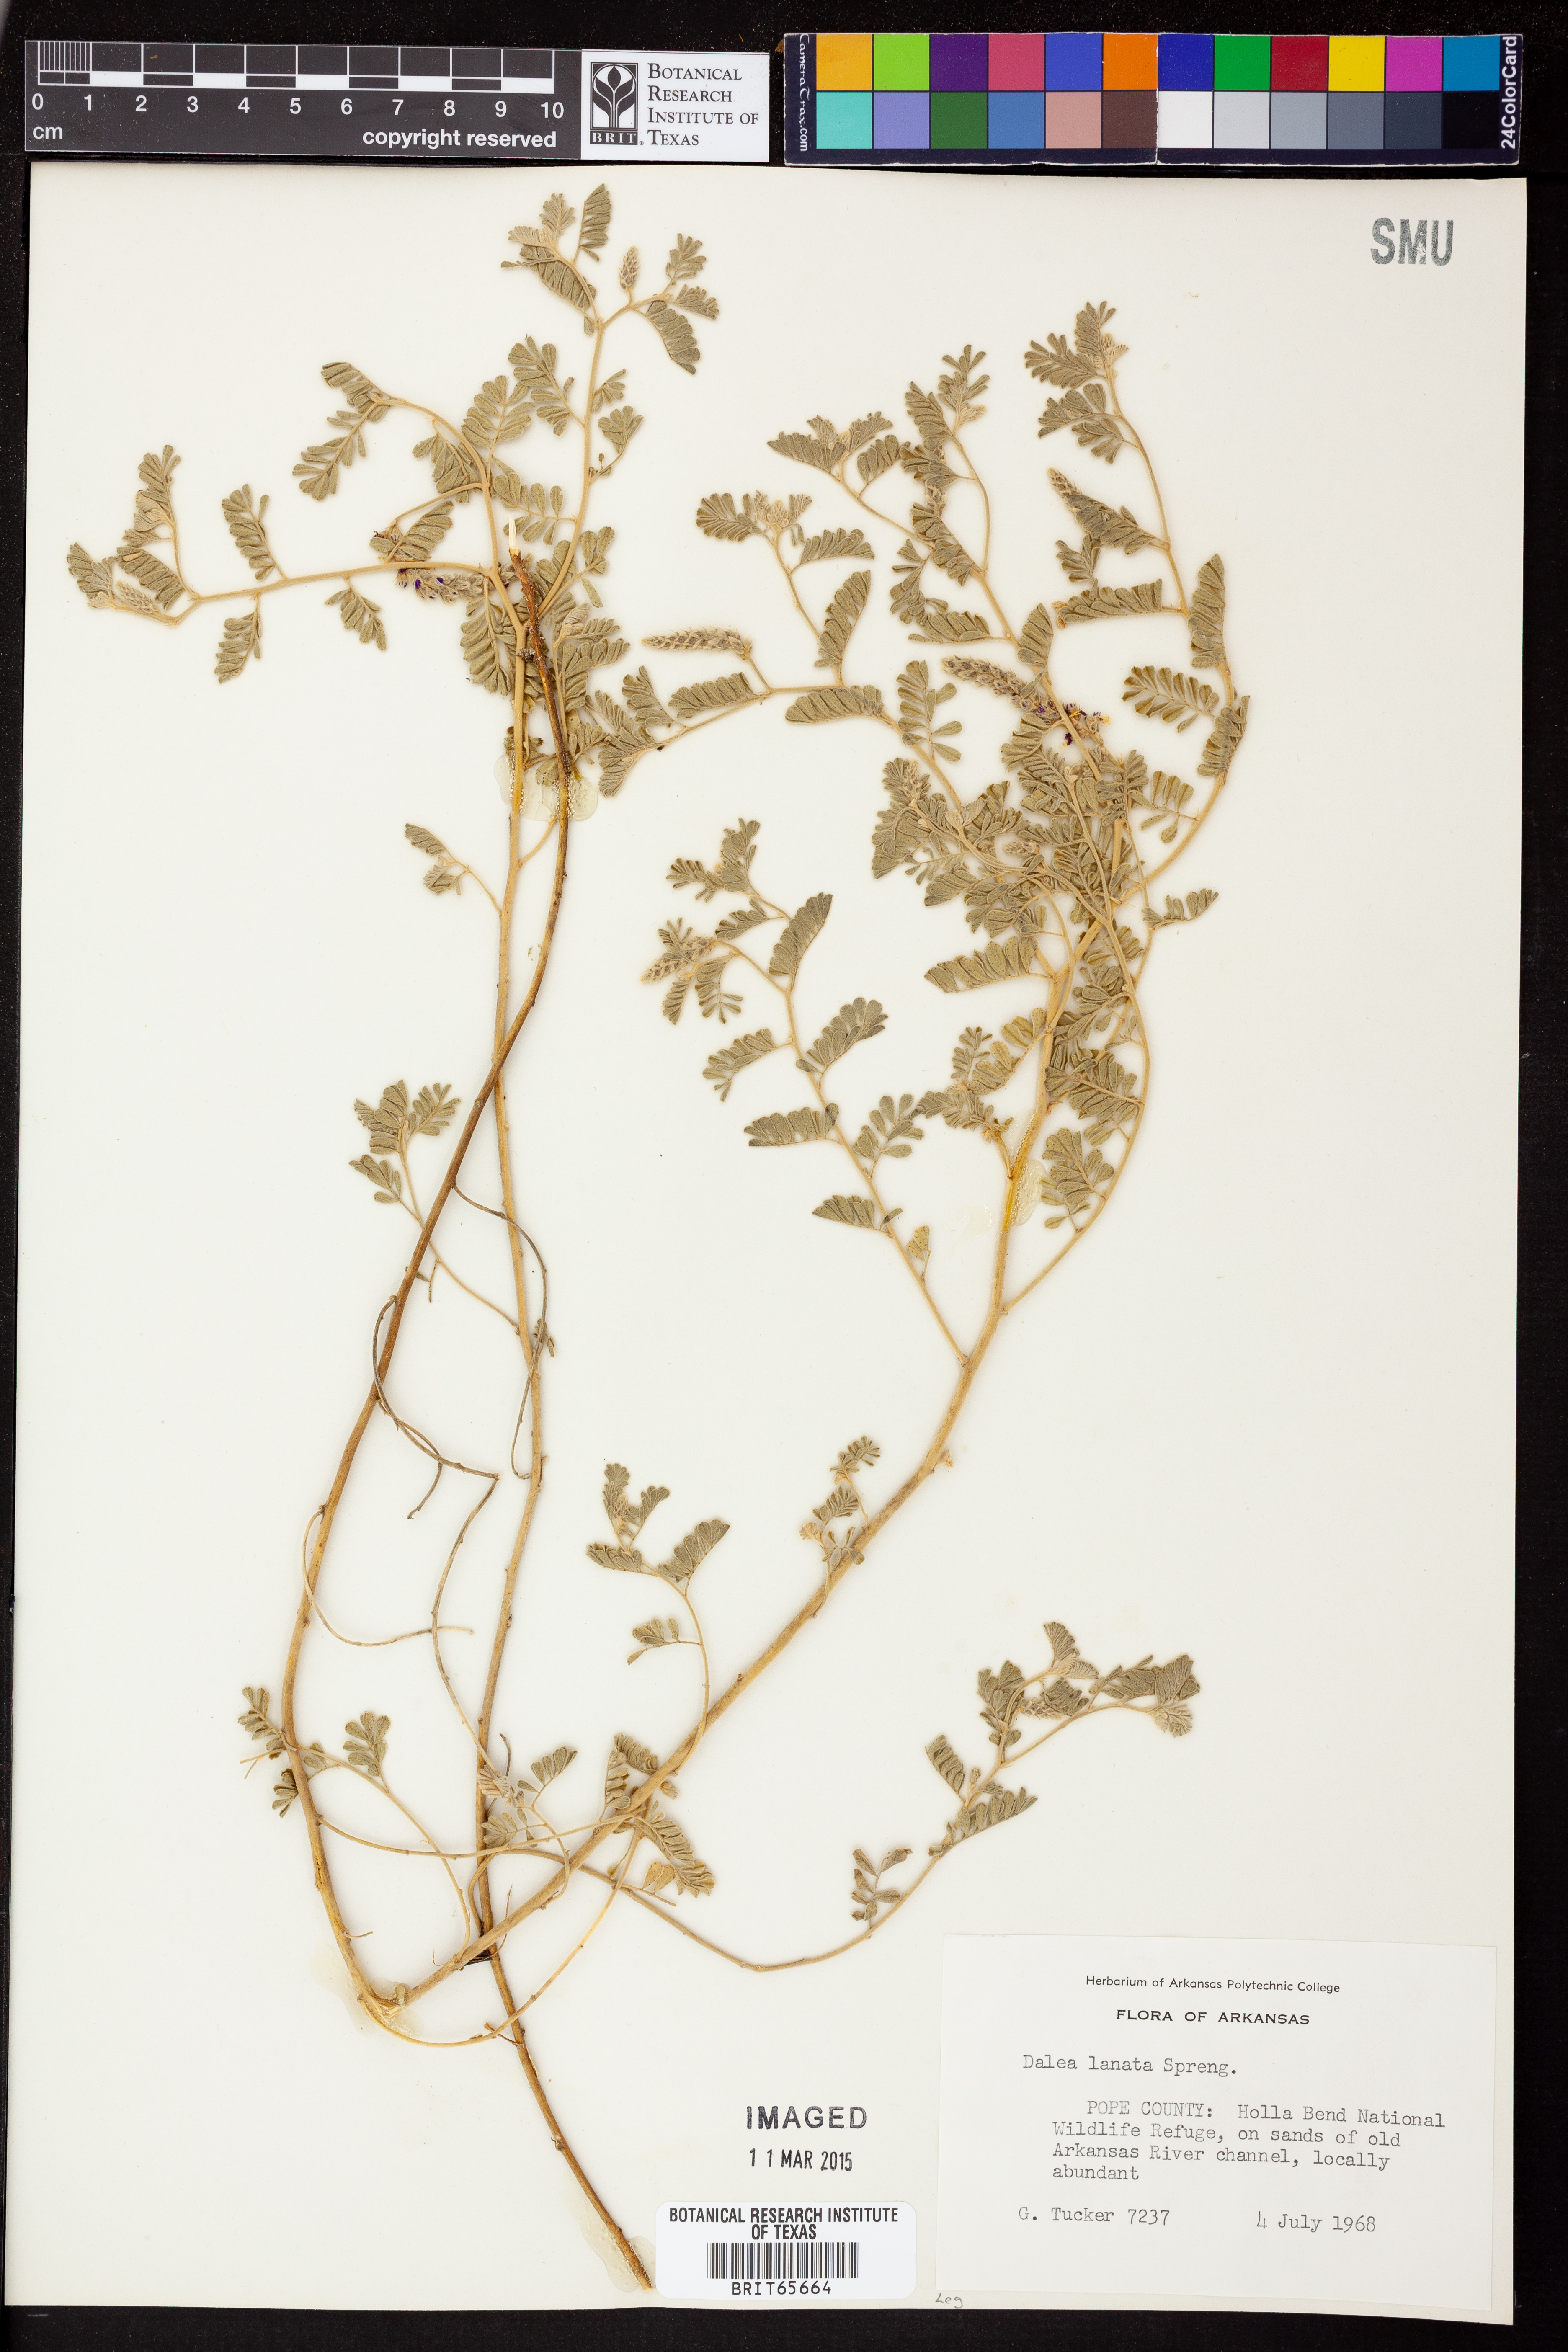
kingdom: Plantae
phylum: Tracheophyta
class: Magnoliopsida
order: Fabales
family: Fabaceae
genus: Dalea
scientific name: Dalea lanata
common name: Woolly dalea
